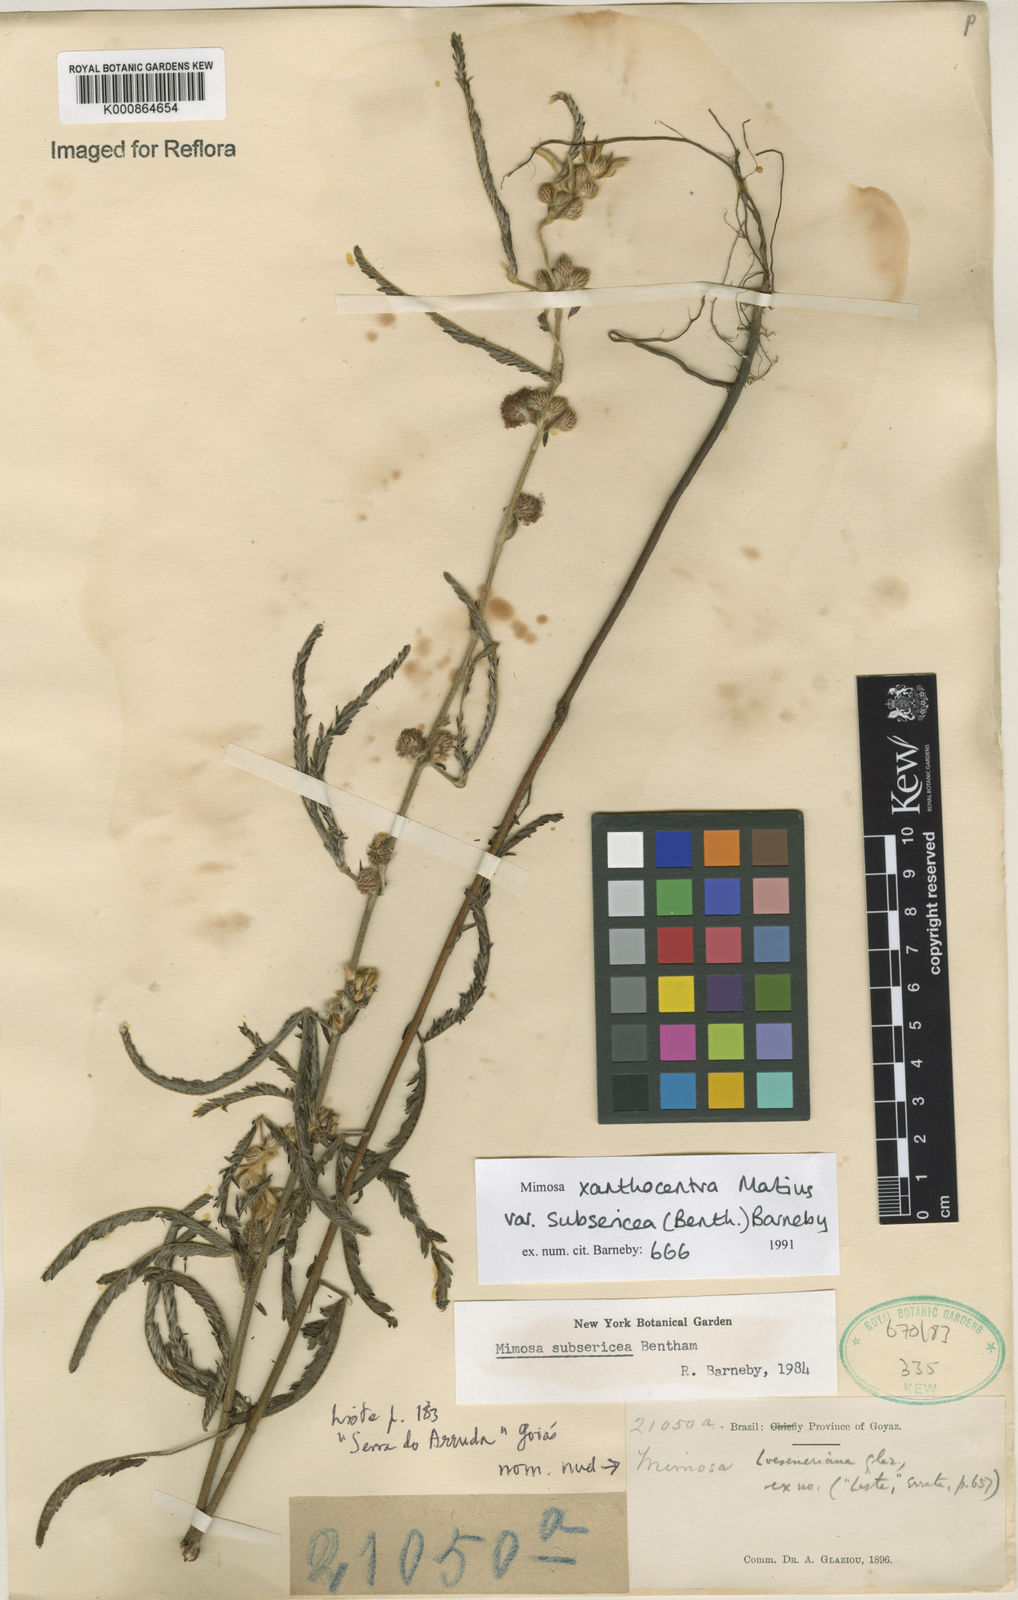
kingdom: Plantae
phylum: Tracheophyta
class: Magnoliopsida
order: Fabales
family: Fabaceae
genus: Mimosa
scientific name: Mimosa xanthocentra
